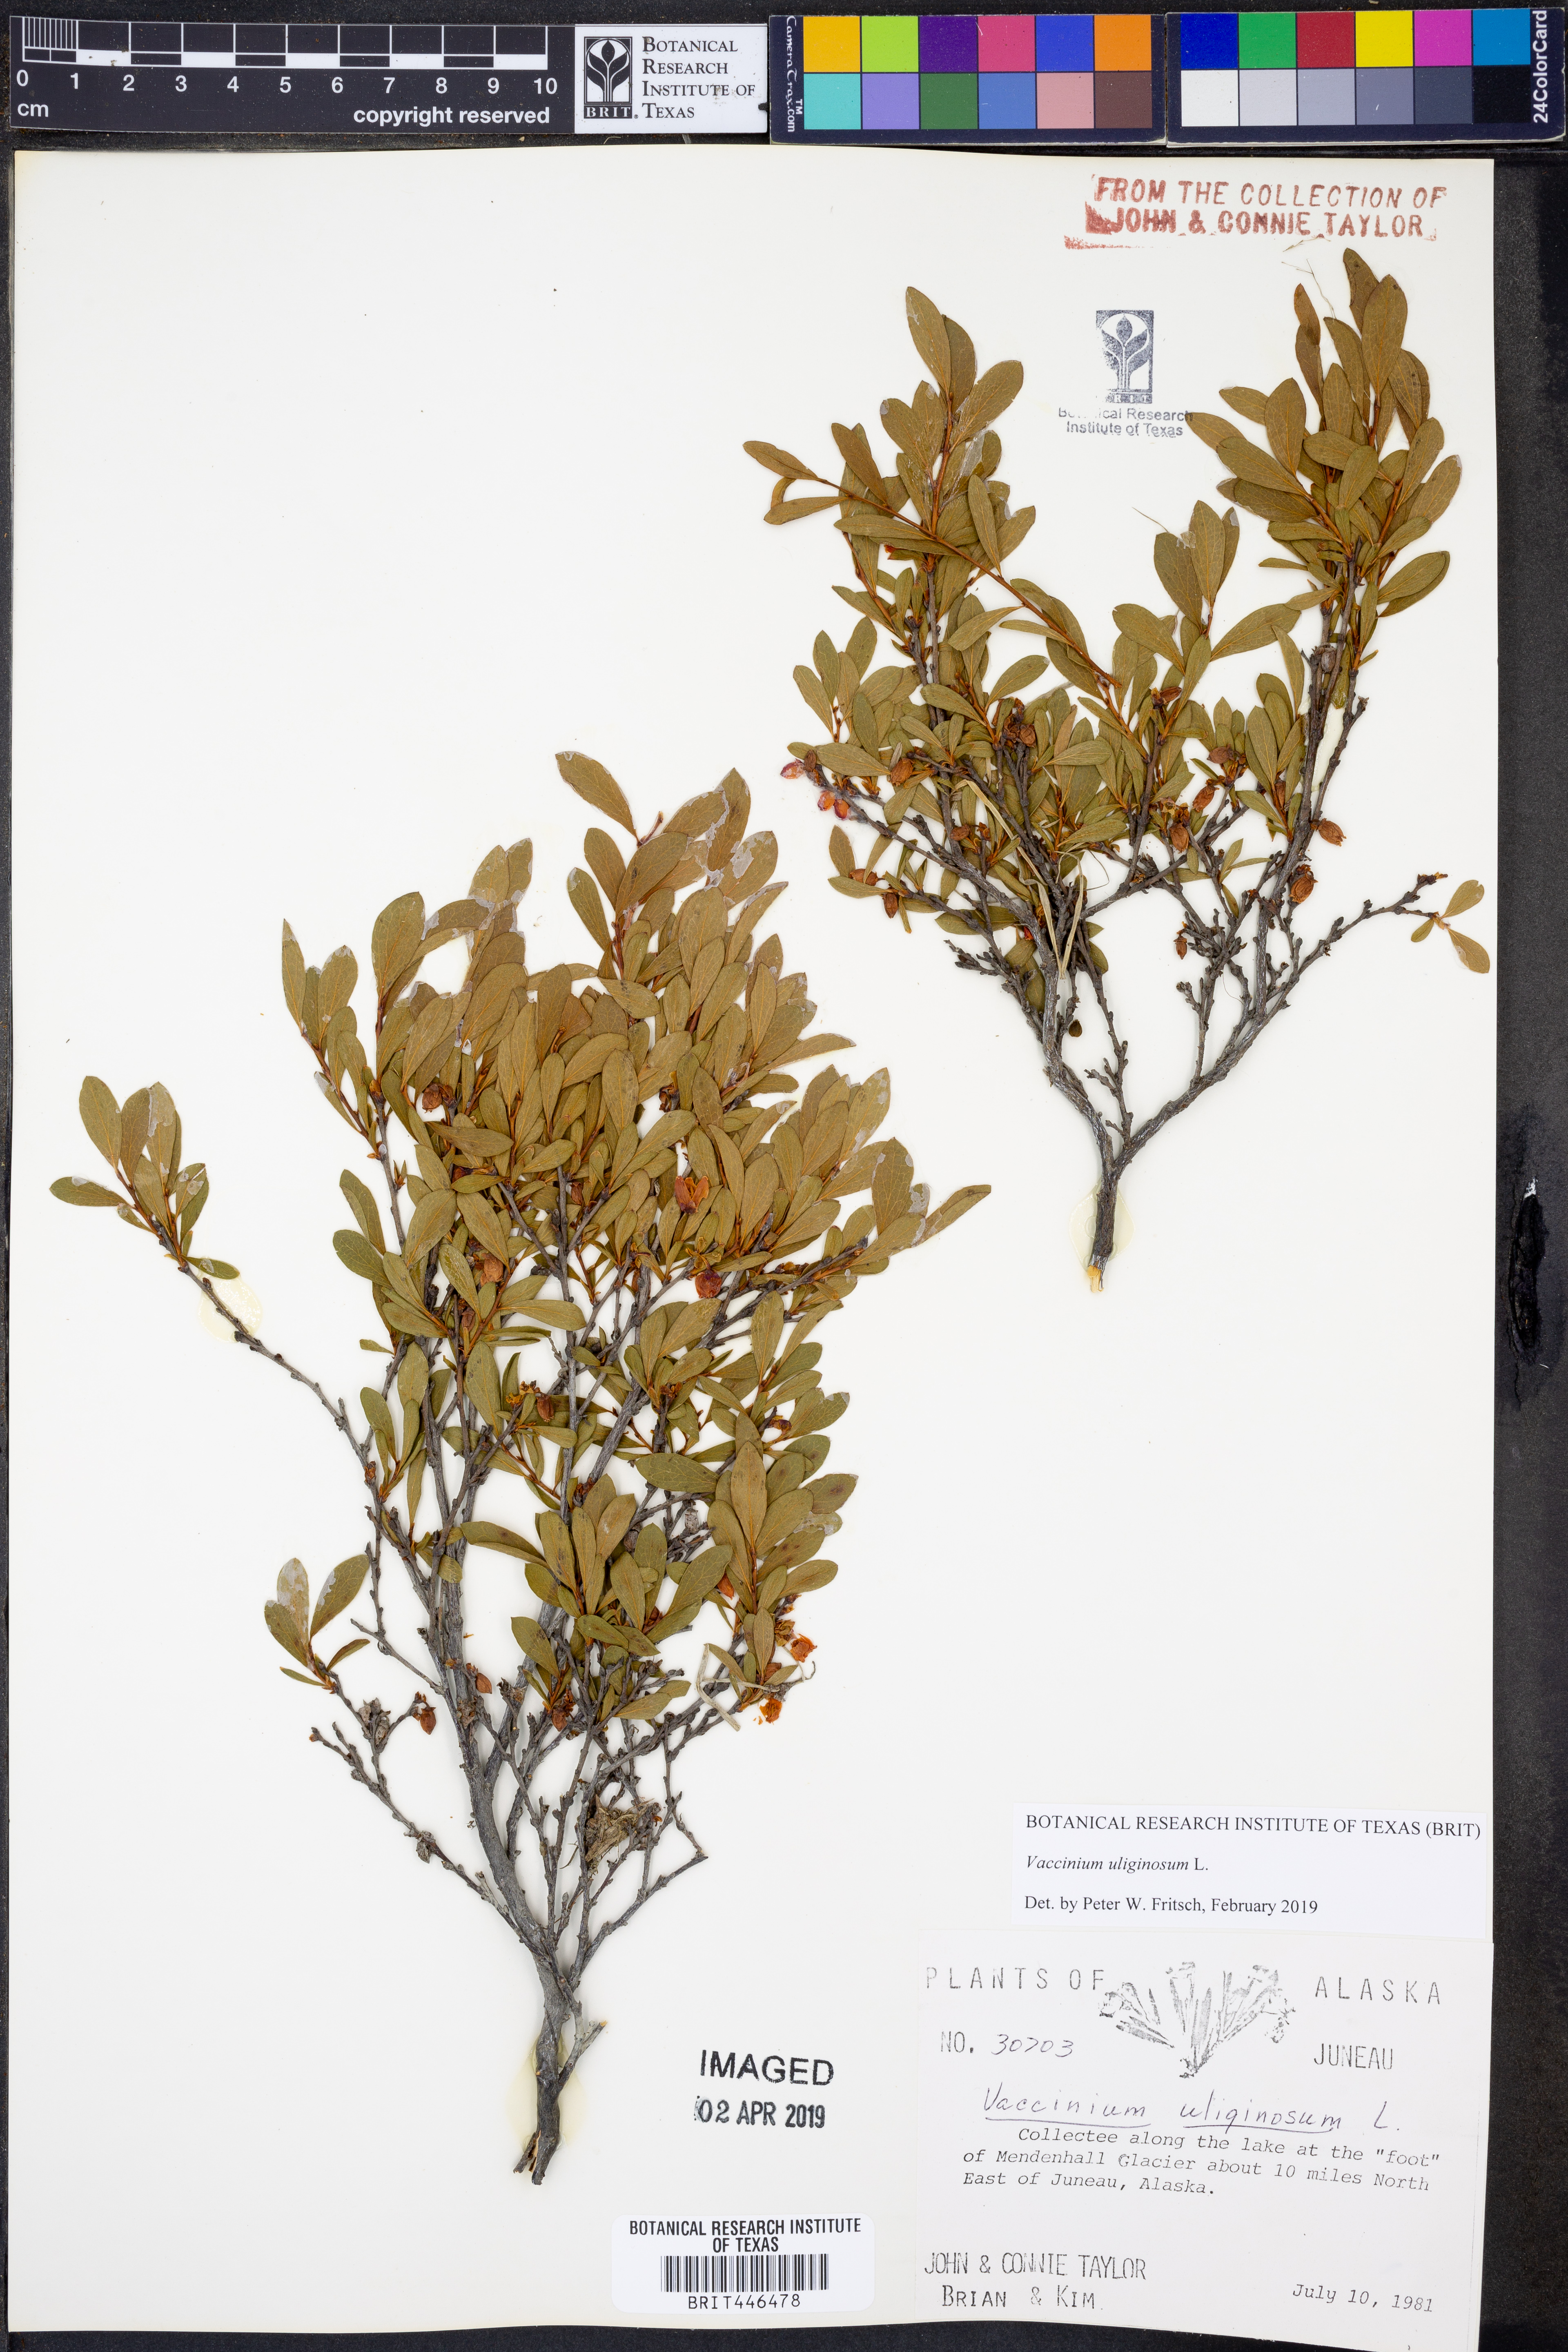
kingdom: Plantae
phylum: Tracheophyta
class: Magnoliopsida
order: Ericales
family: Ericaceae
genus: Vaccinium
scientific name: Vaccinium uliginosum
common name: Bog bilberry
